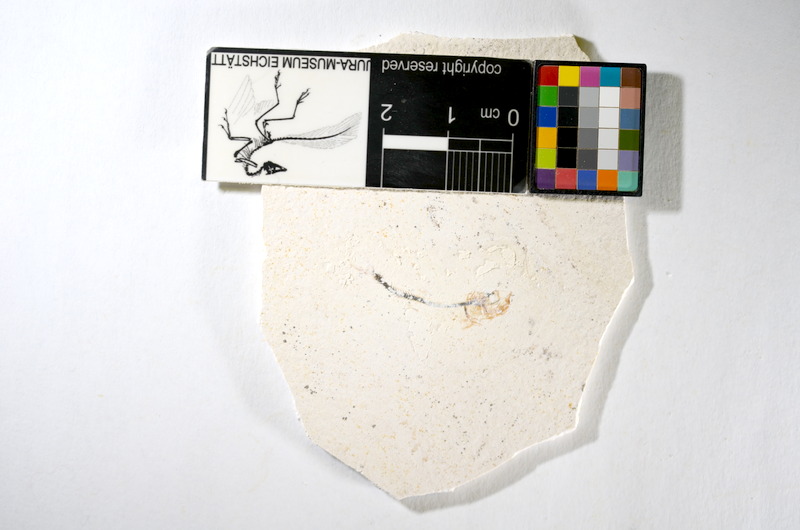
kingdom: Animalia
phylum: Chordata
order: Salmoniformes
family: Orthogonikleithridae
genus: Orthogonikleithrus
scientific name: Orthogonikleithrus hoelli
